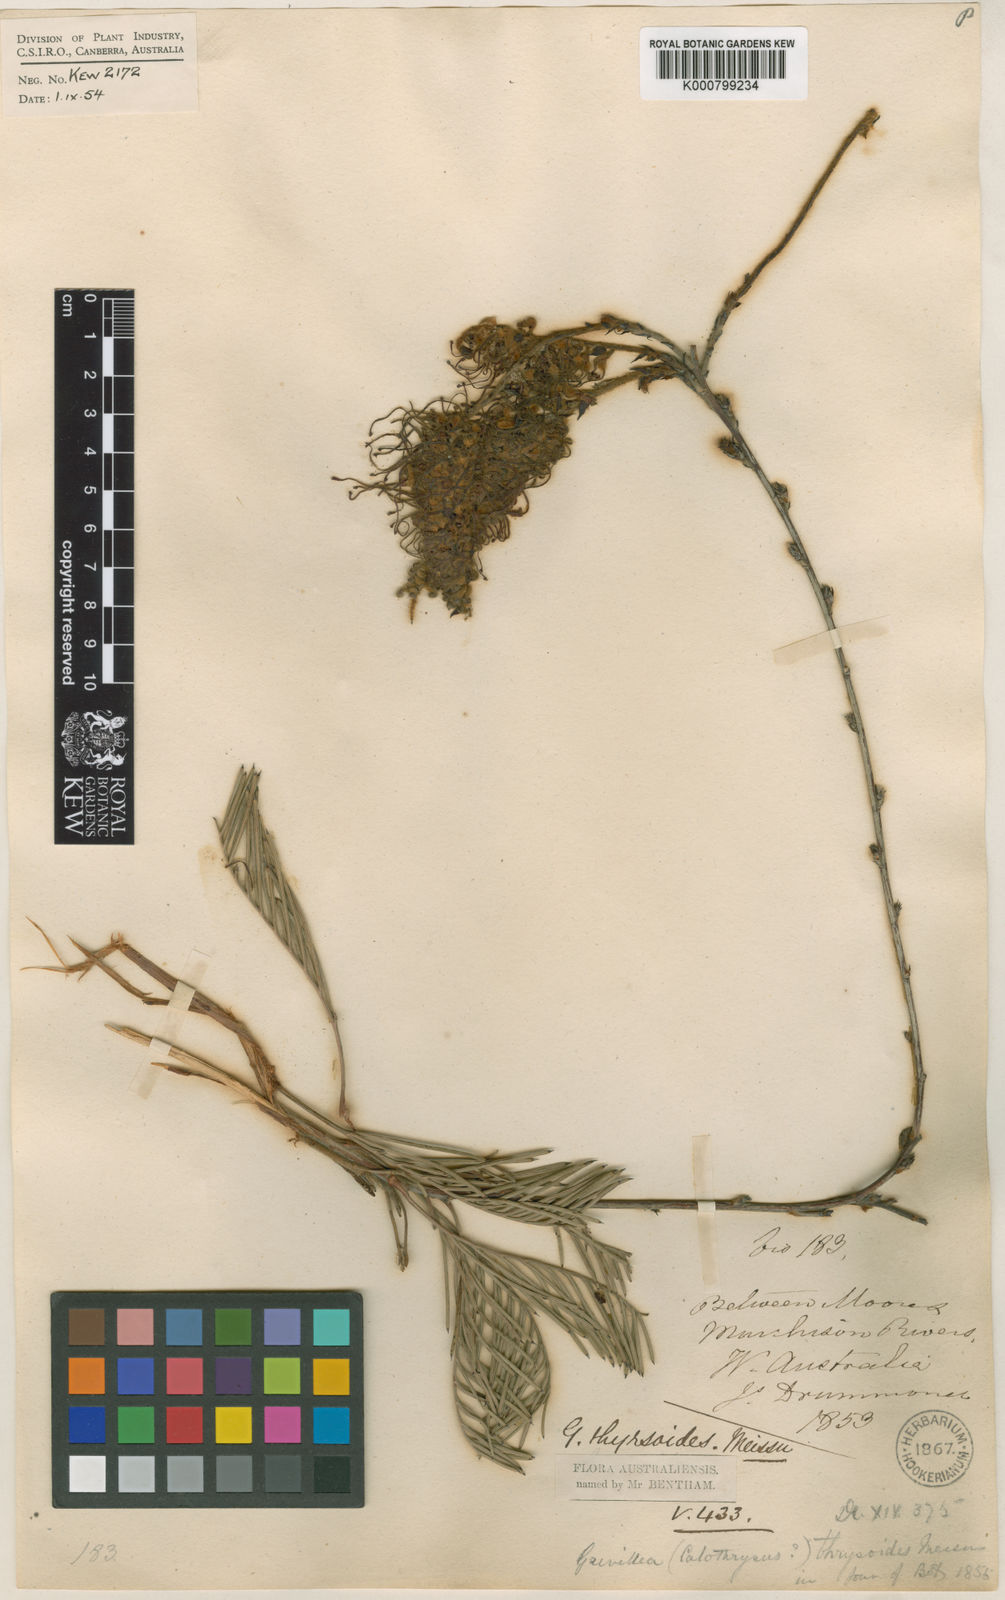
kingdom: Plantae
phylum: Tracheophyta
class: Magnoliopsida
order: Proteales
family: Proteaceae
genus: Grevillea
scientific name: Grevillea thyrsoides
